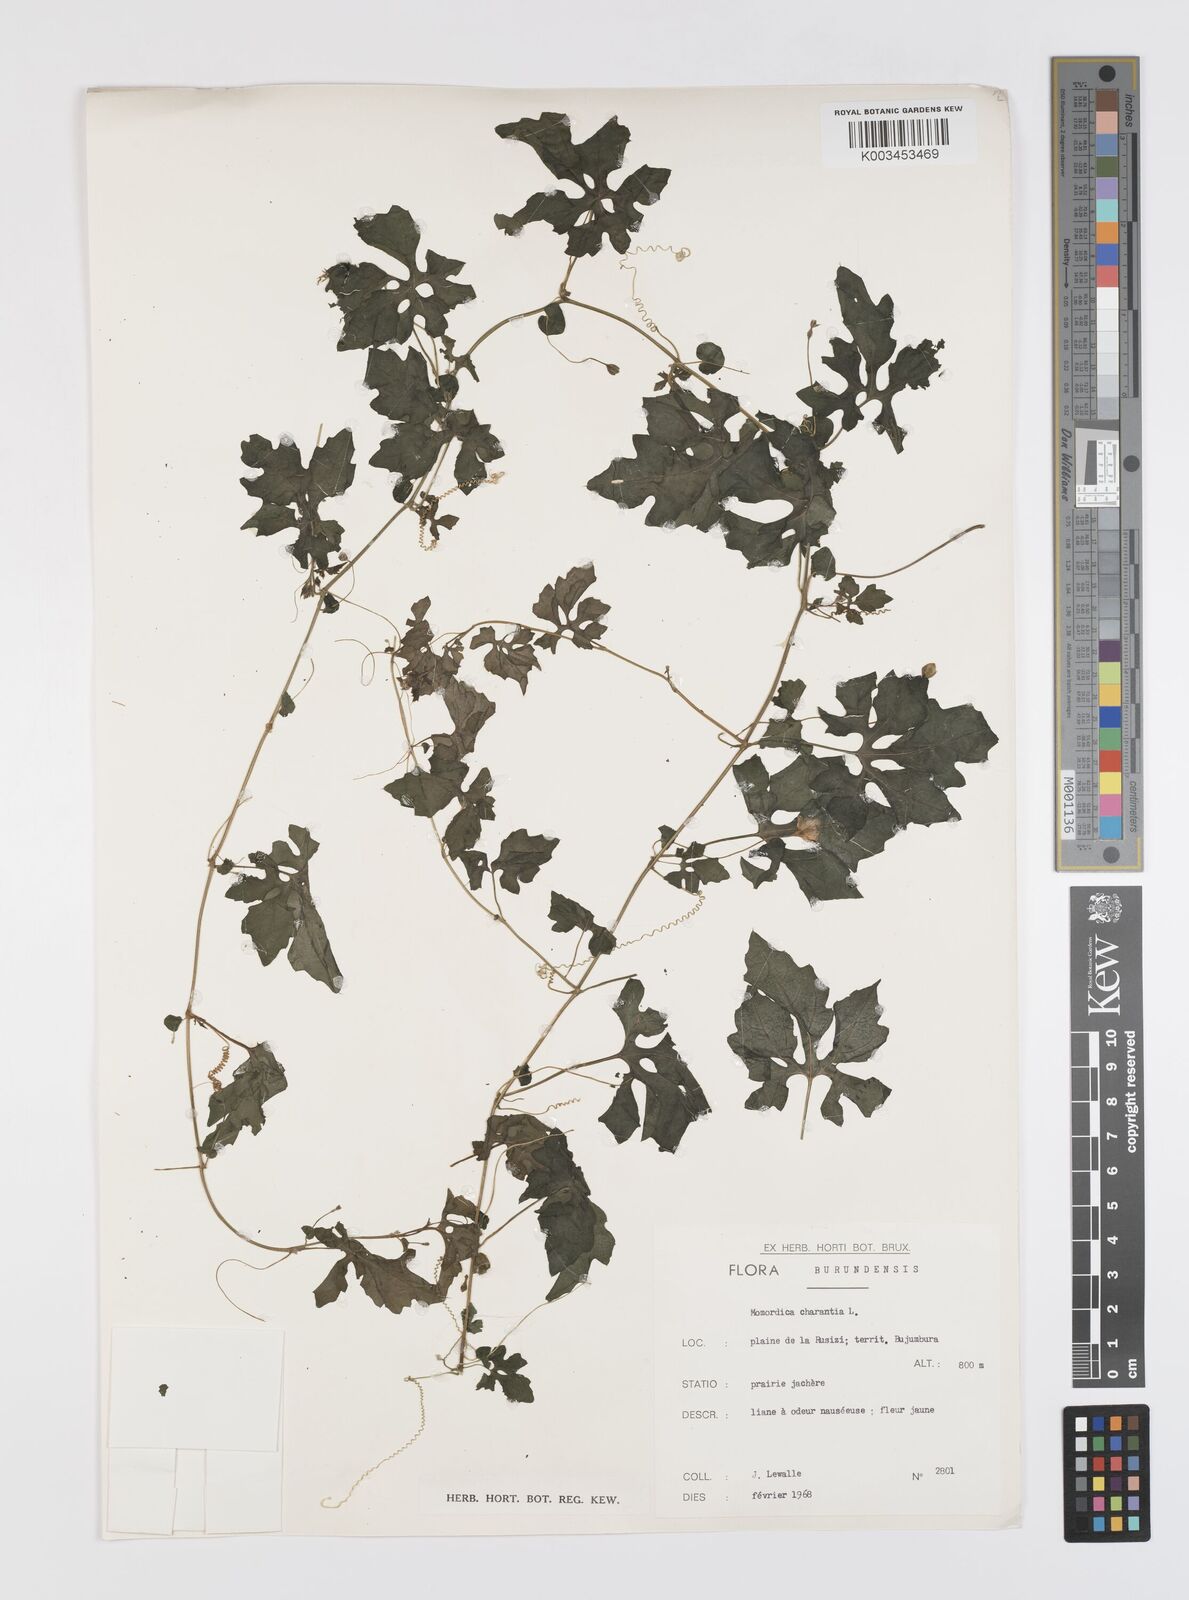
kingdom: Plantae
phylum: Tracheophyta
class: Magnoliopsida
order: Cucurbitales
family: Cucurbitaceae
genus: Momordica
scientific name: Momordica charantia
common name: Balsampear
